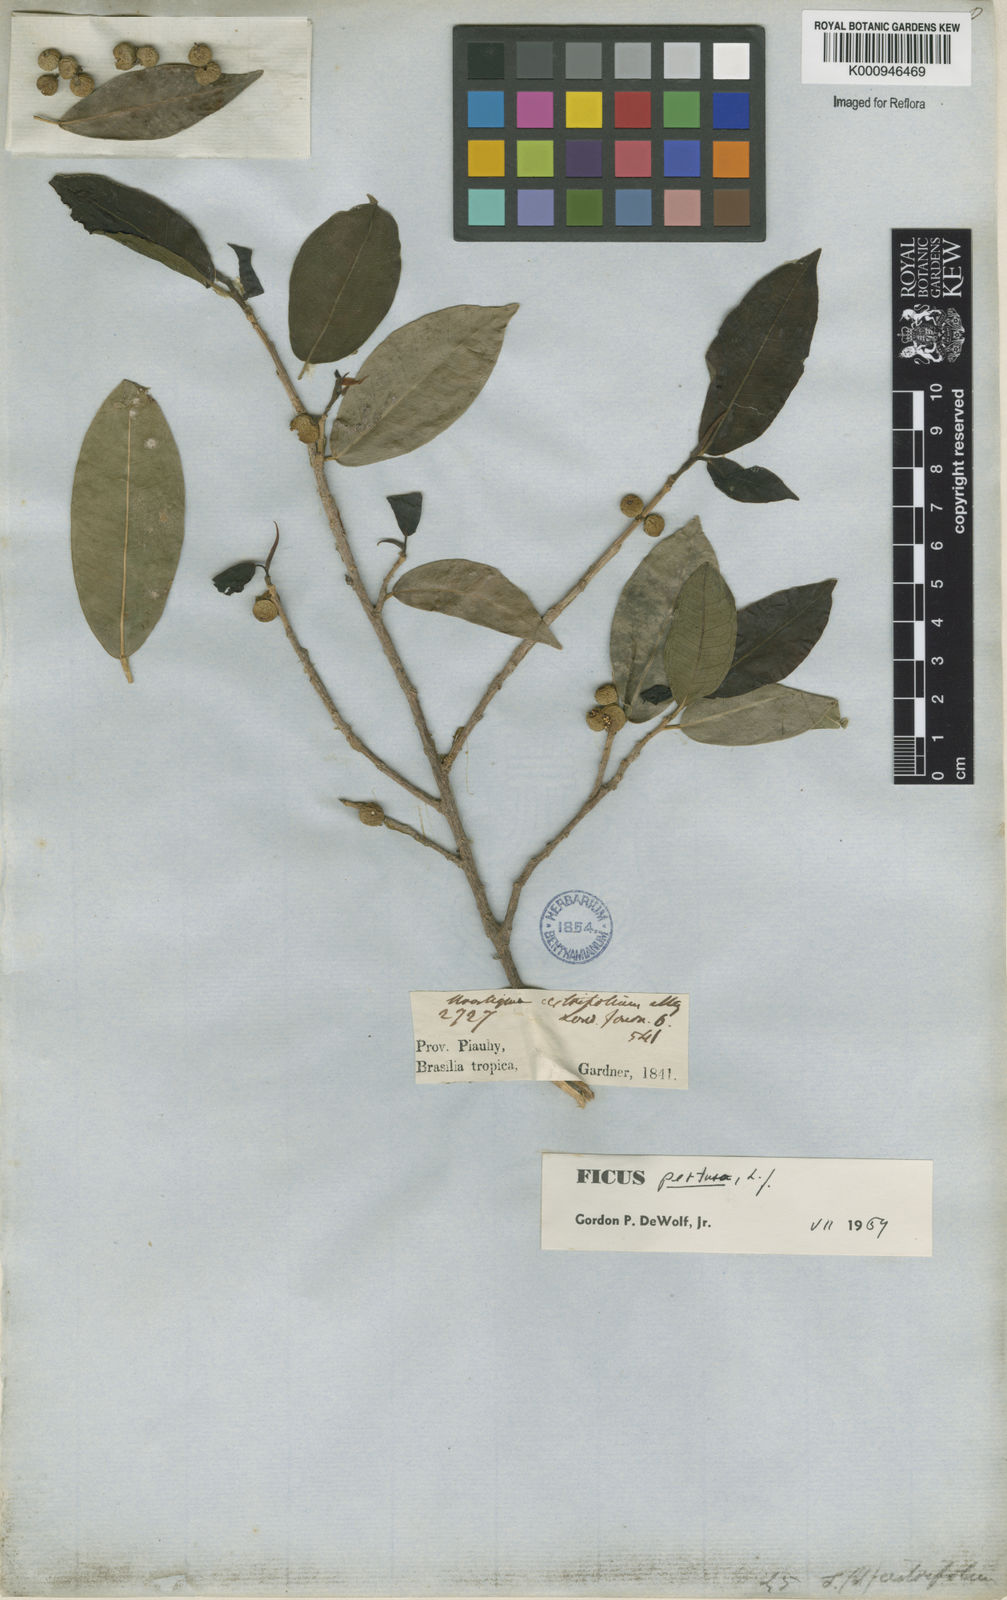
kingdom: Plantae
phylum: Tracheophyta
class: Magnoliopsida
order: Rosales
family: Moraceae
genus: Ficus
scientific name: Ficus pertusa
